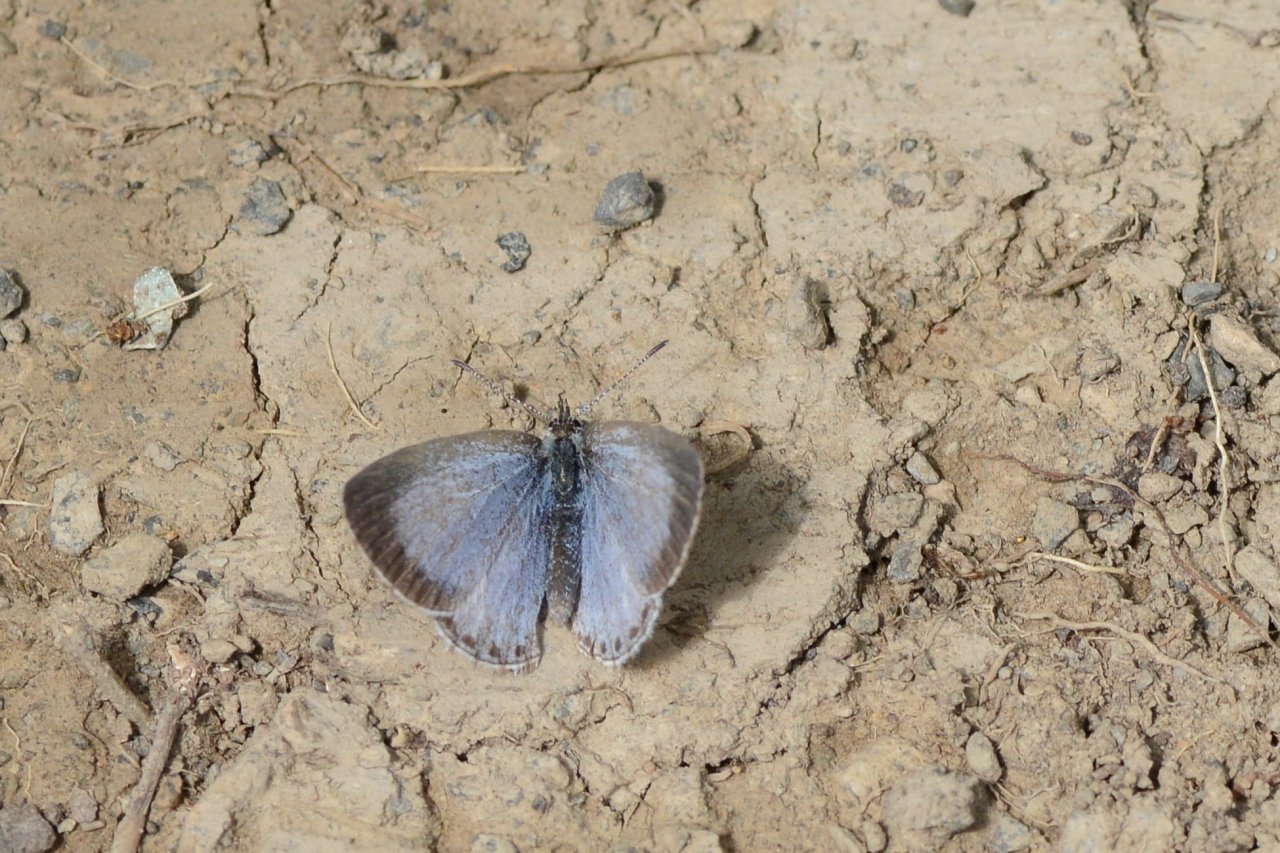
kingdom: Animalia
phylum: Arthropoda
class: Insecta
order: Lepidoptera
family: Lycaenidae
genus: Celastrina
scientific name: Celastrina lucia
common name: Northern Spring Azure
